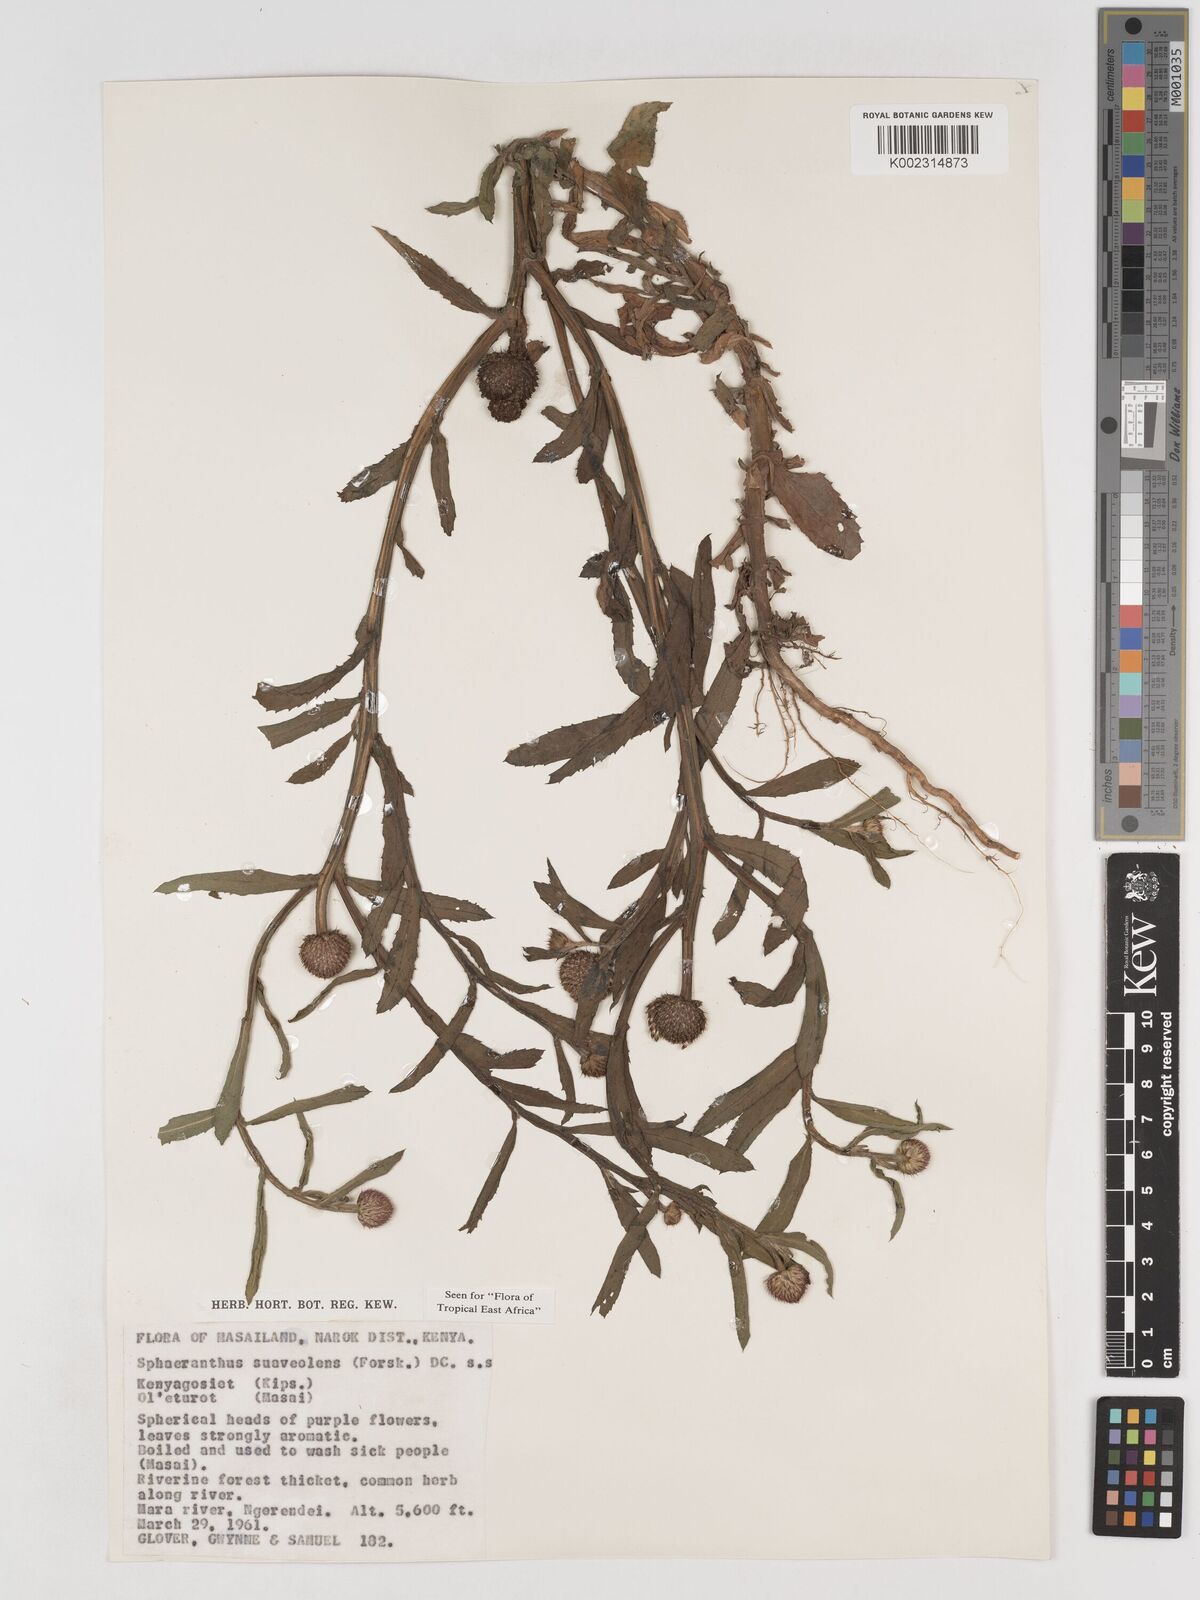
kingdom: Plantae
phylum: Tracheophyta
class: Magnoliopsida
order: Asterales
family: Asteraceae
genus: Sphaeranthus
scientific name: Sphaeranthus suaveolens
